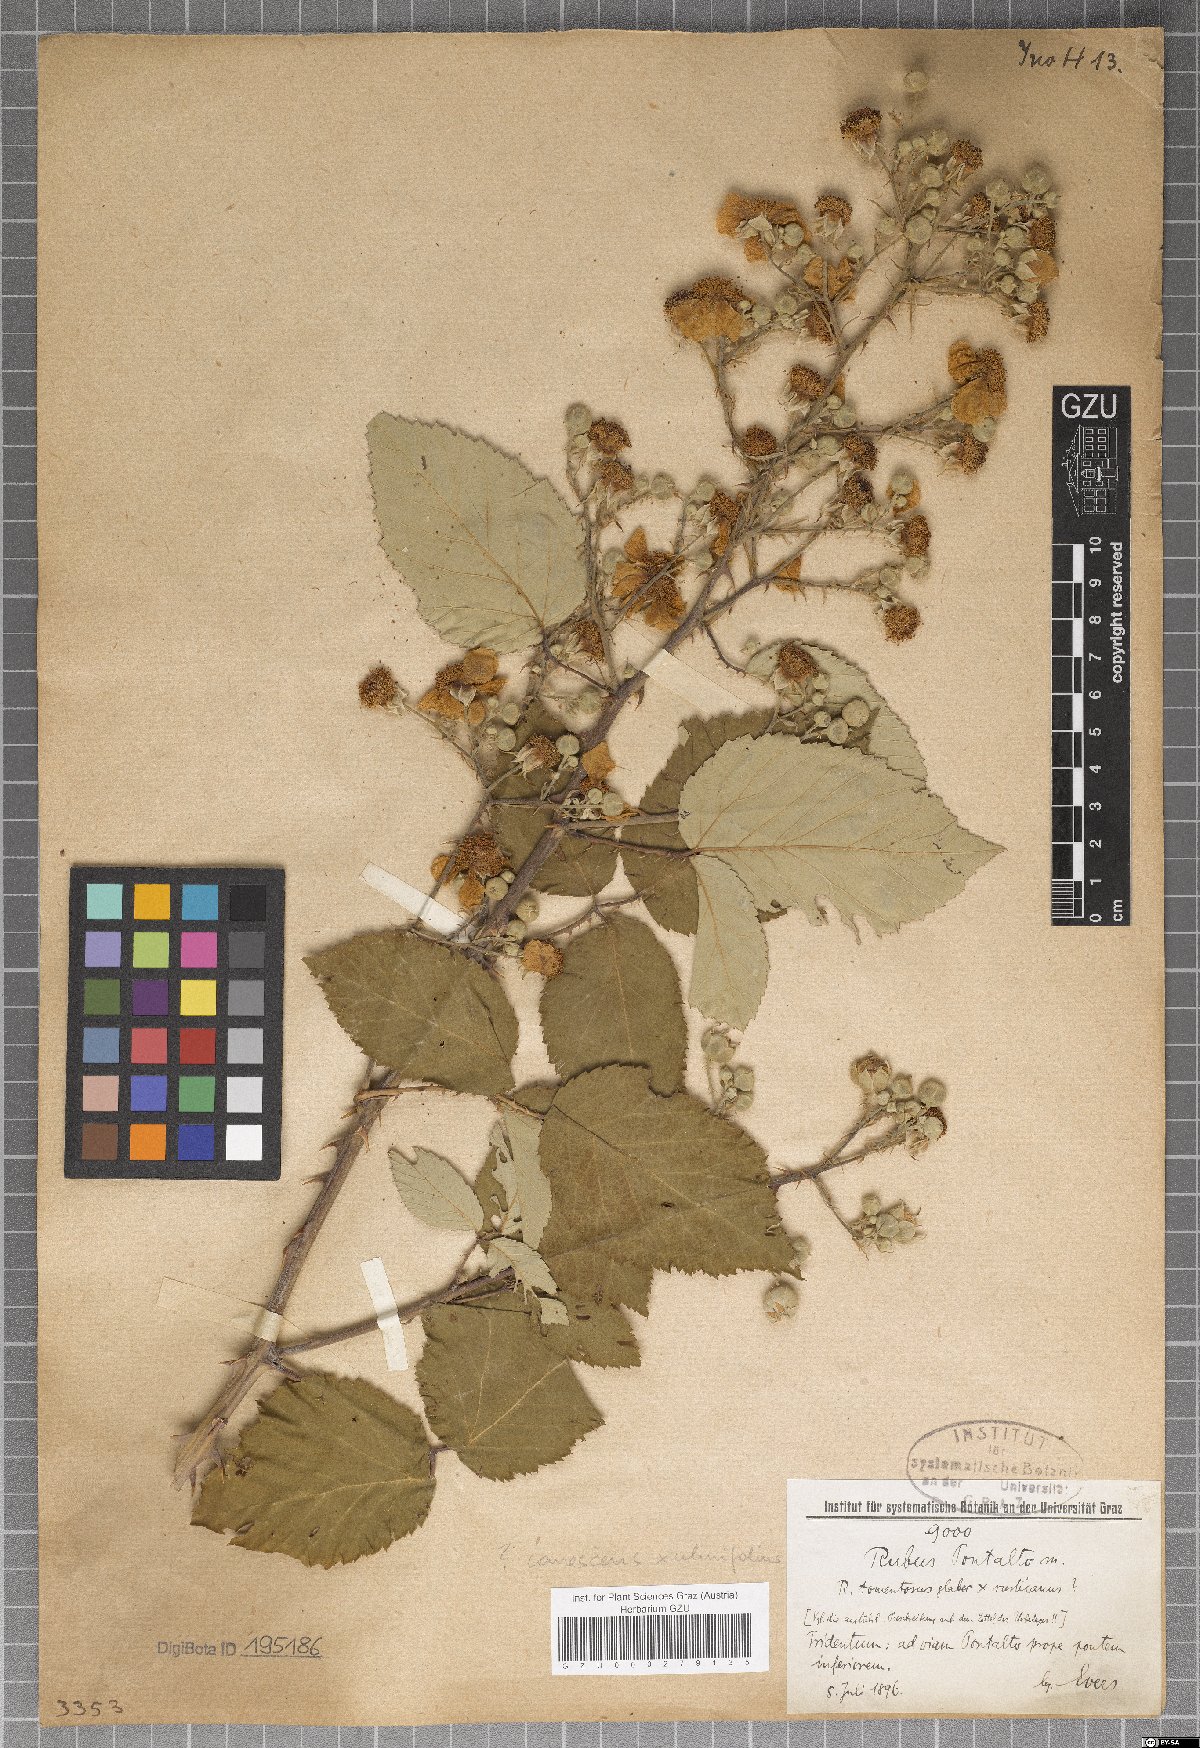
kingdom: Plantae
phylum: Tracheophyta
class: Magnoliopsida
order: Rosales
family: Rosaceae
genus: Rubus
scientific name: Rubus pontalto
